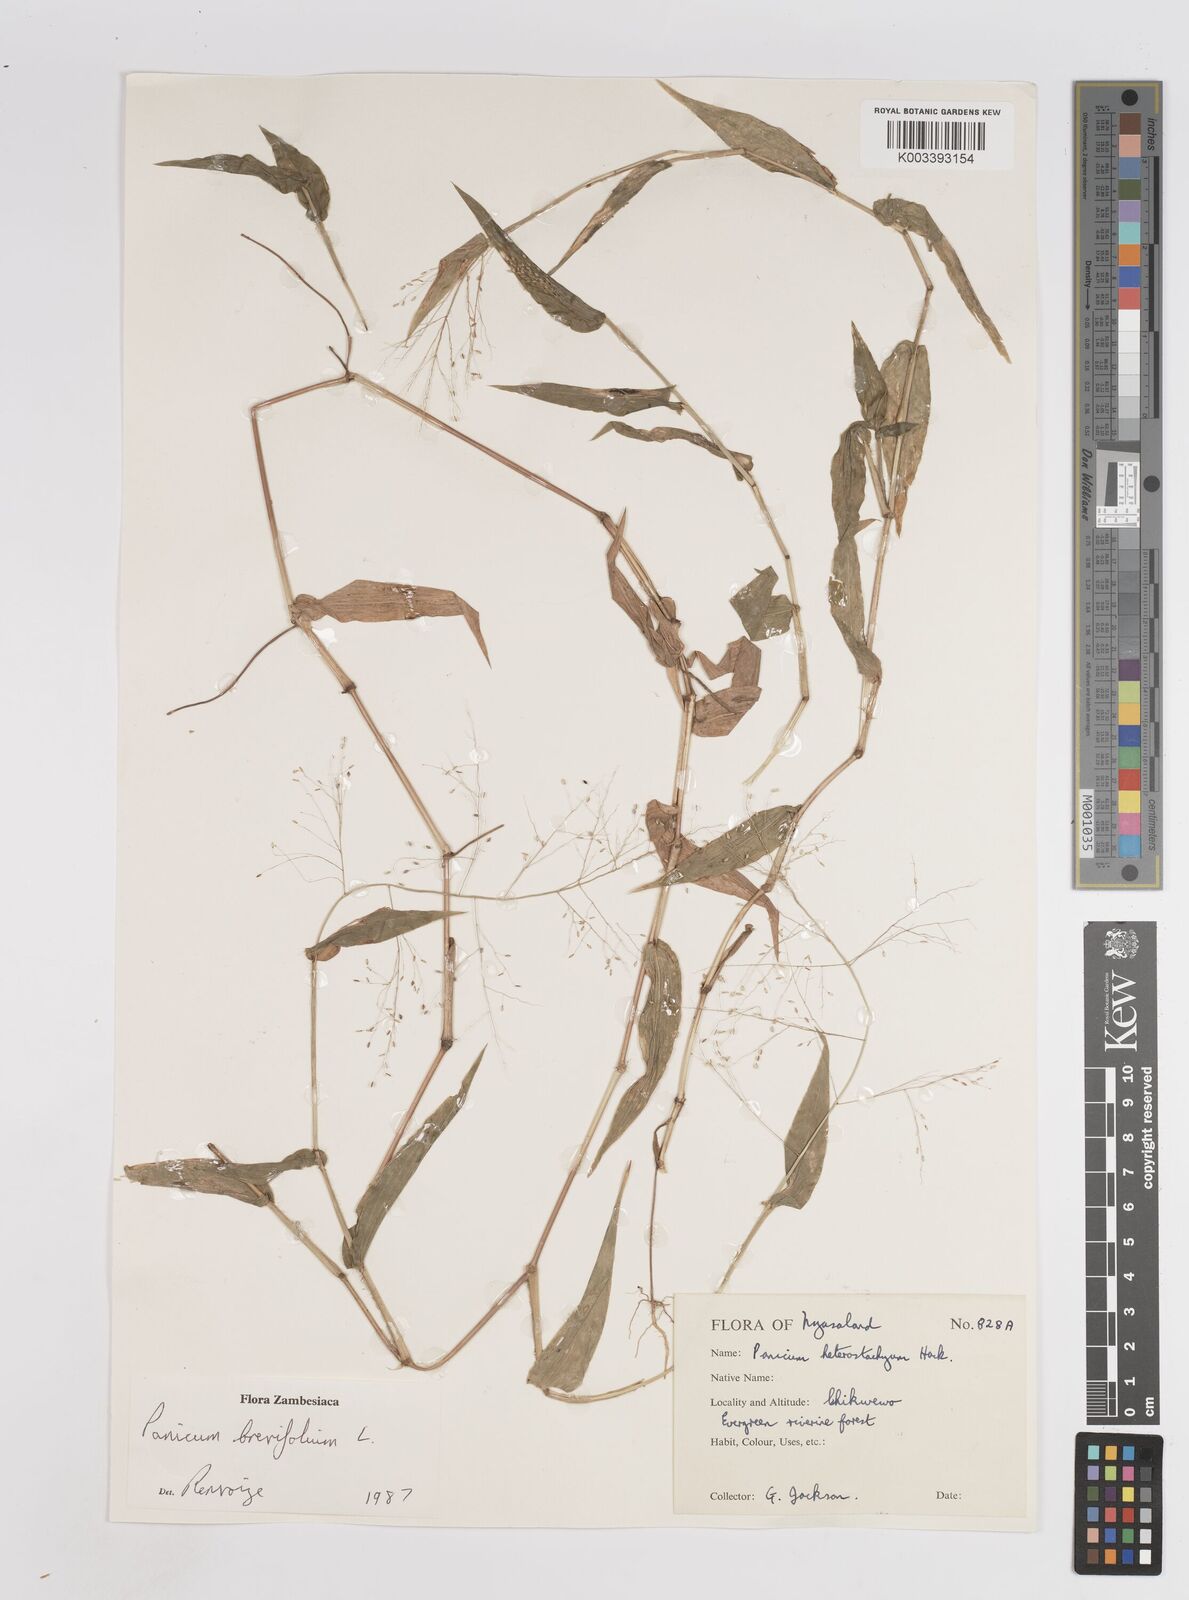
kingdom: Plantae
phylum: Tracheophyta
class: Liliopsida
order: Poales
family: Poaceae
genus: Panicum
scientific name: Panicum brevifolium
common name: Shortleaf panic grass
